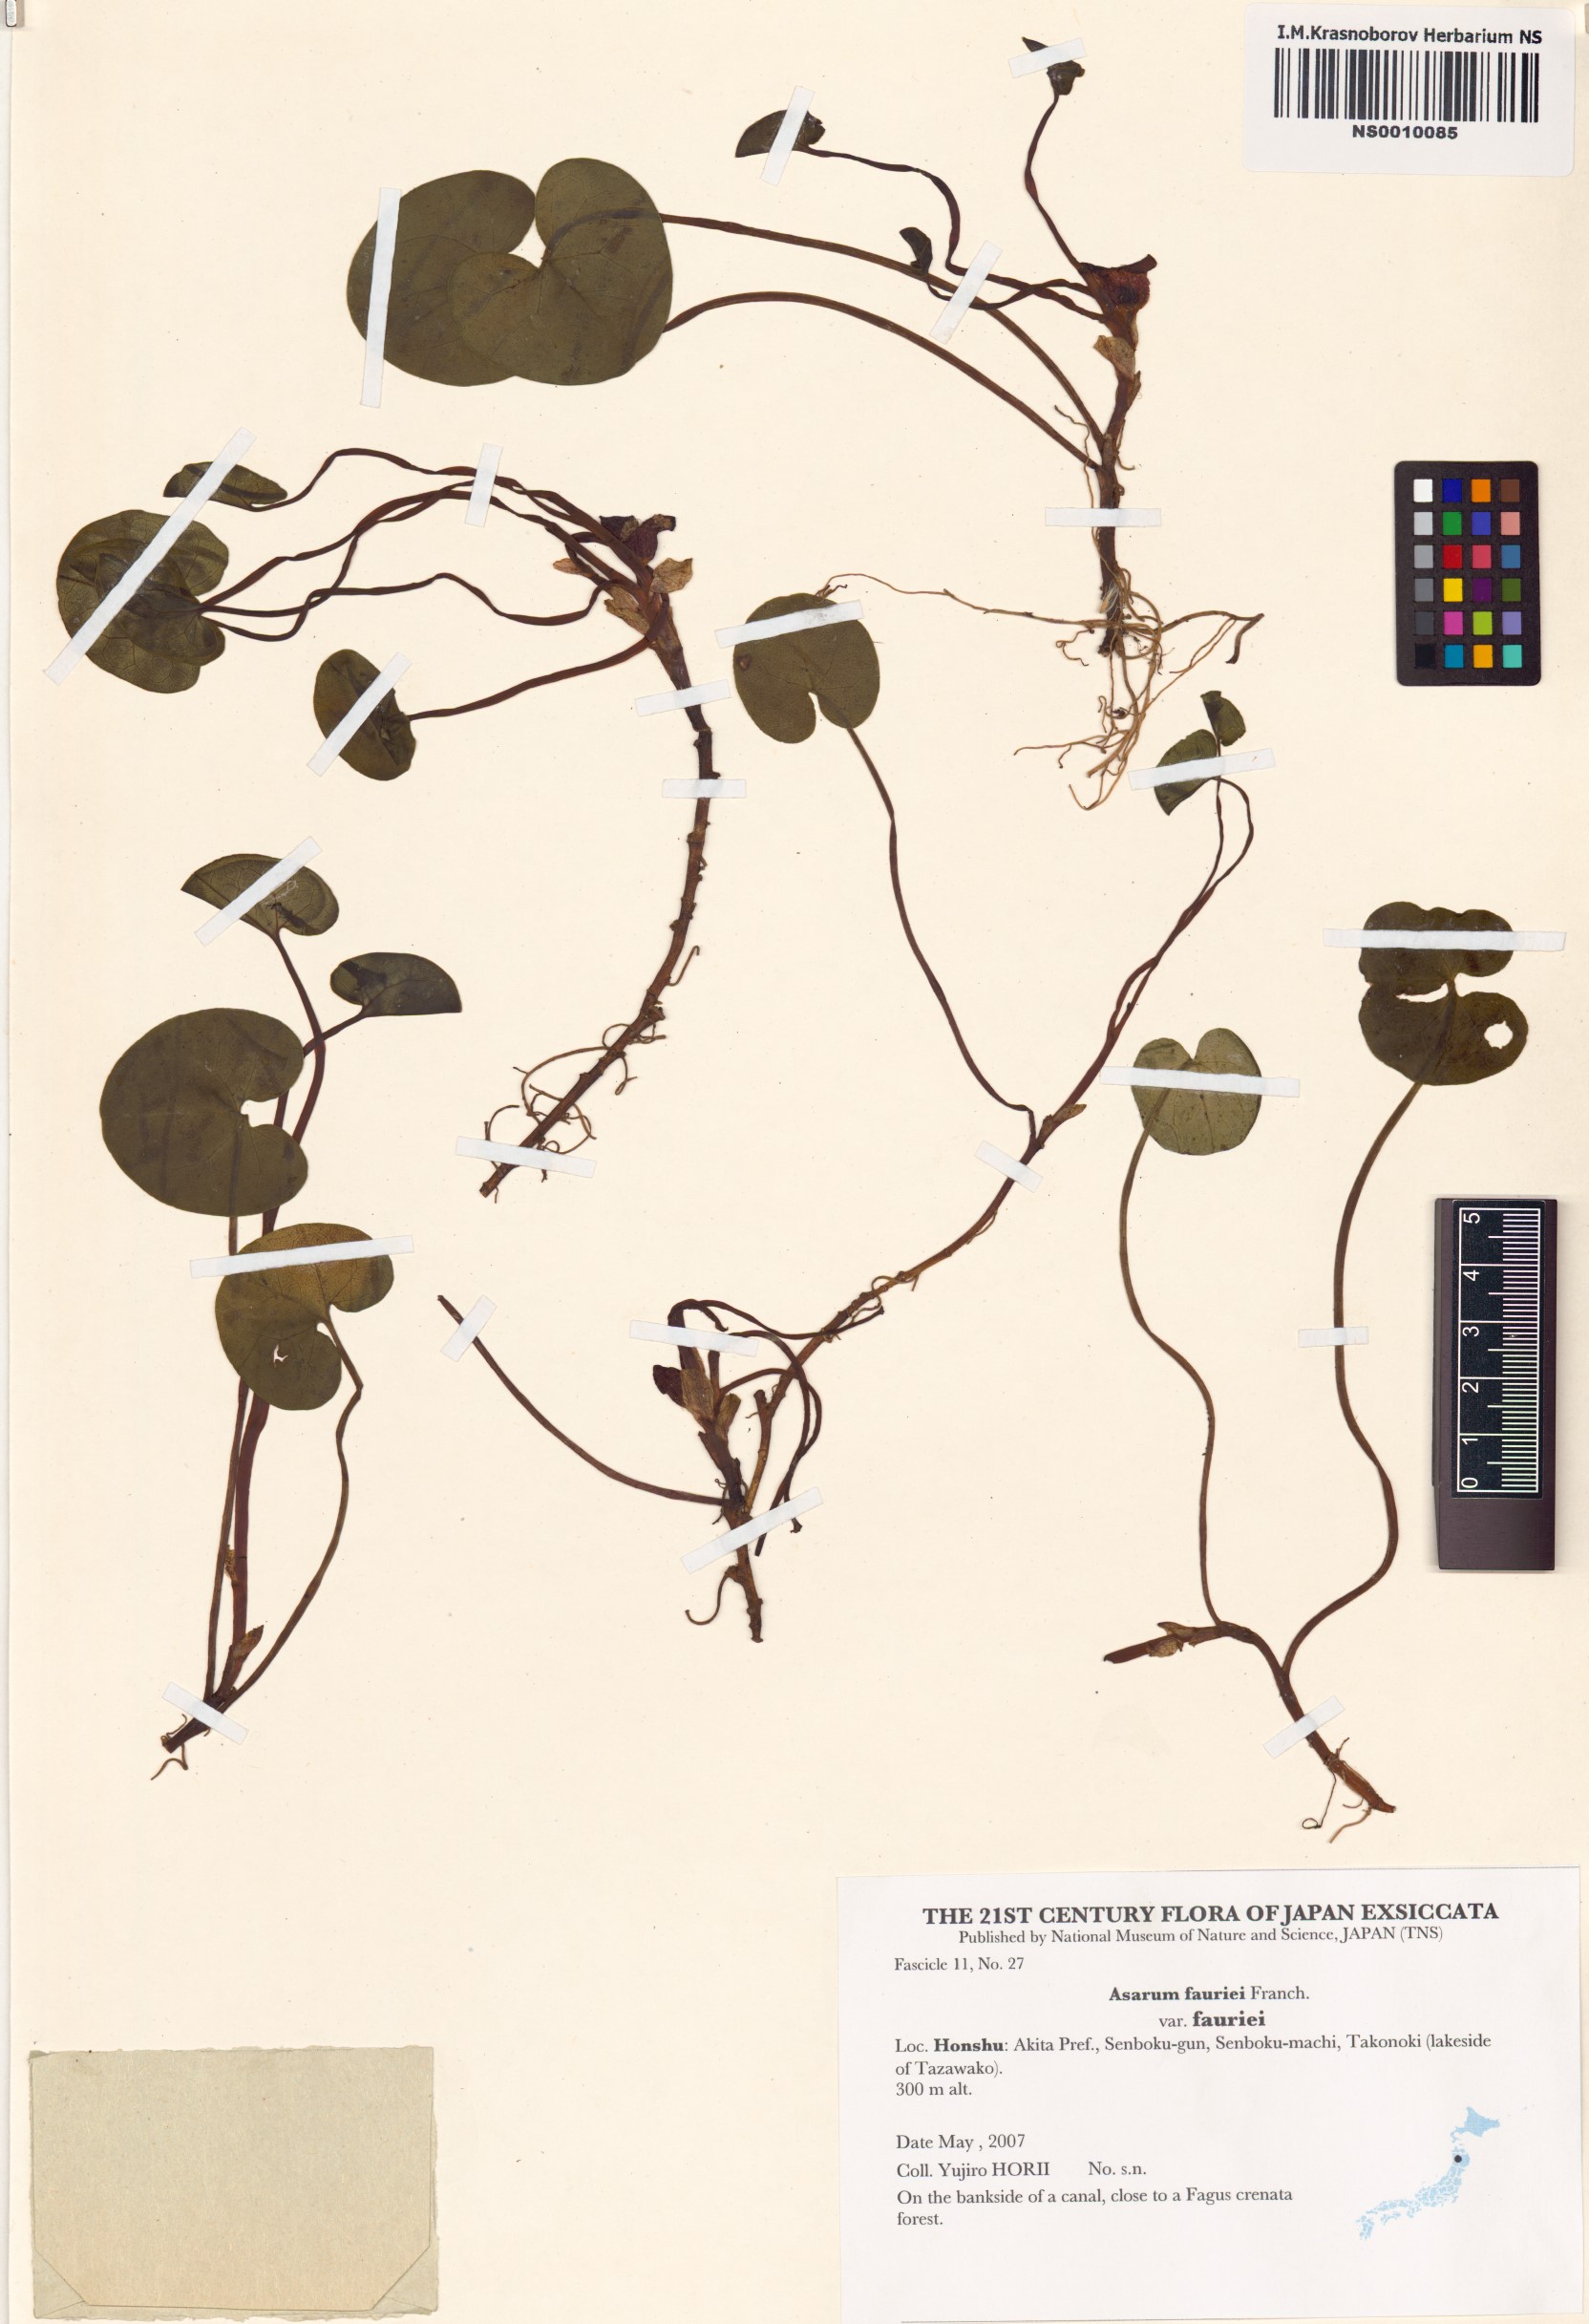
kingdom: Plantae
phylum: Tracheophyta
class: Magnoliopsida
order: Piperales
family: Aristolochiaceae
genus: Asarum
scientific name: Asarum fauriei
